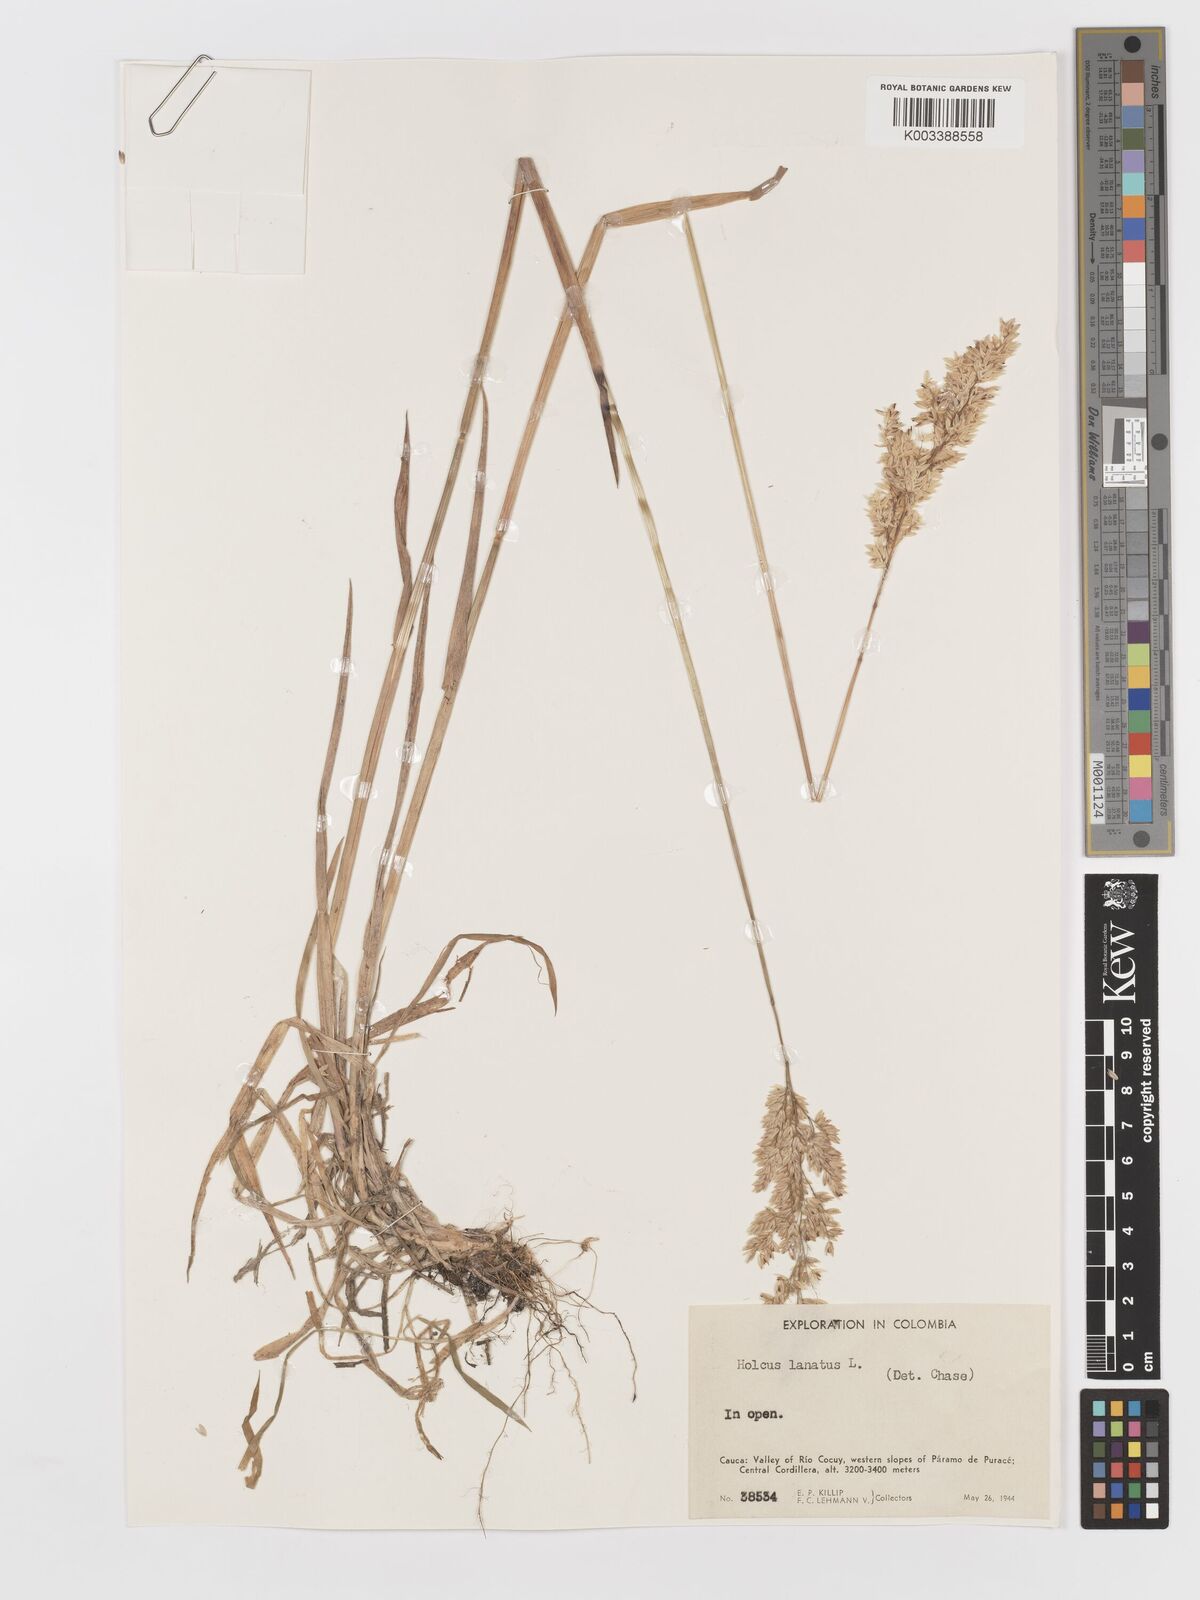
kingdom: Plantae
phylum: Tracheophyta
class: Liliopsida
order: Poales
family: Poaceae
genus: Holcus
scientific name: Holcus lanatus
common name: Yorkshire-fog
